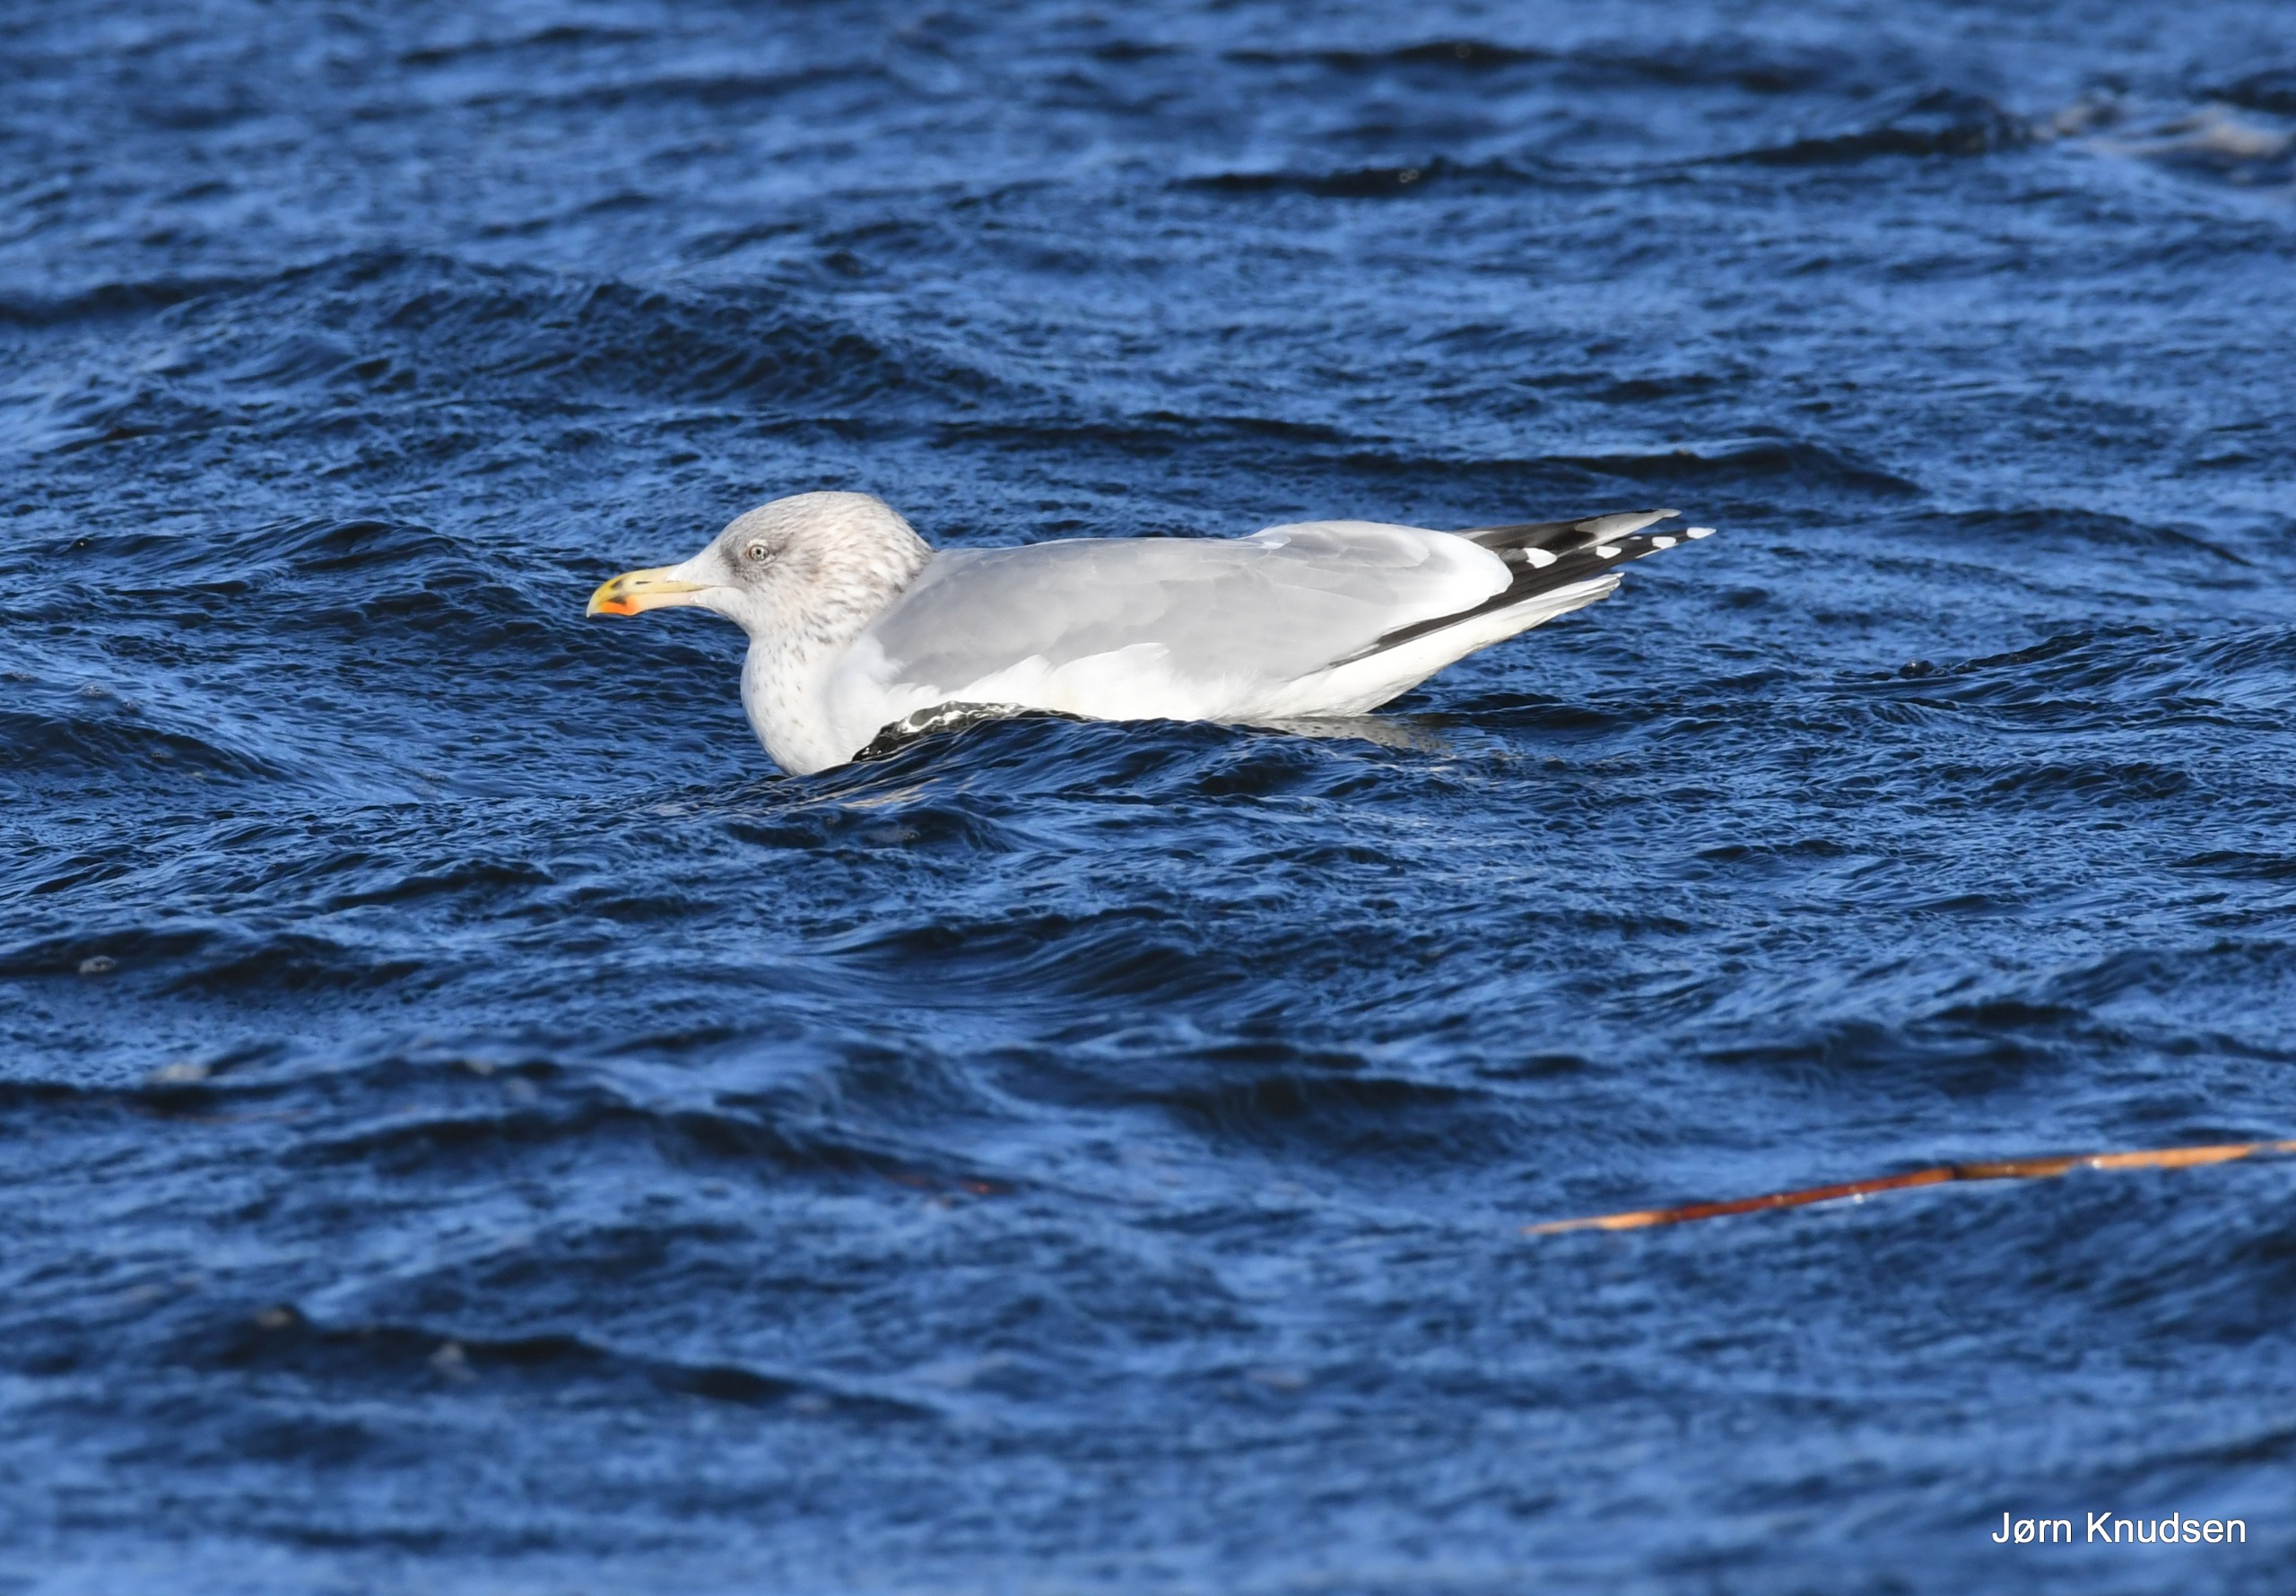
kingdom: Animalia
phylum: Chordata
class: Aves
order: Charadriiformes
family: Laridae
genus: Larus
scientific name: Larus argentatus
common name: Sølvmåge
